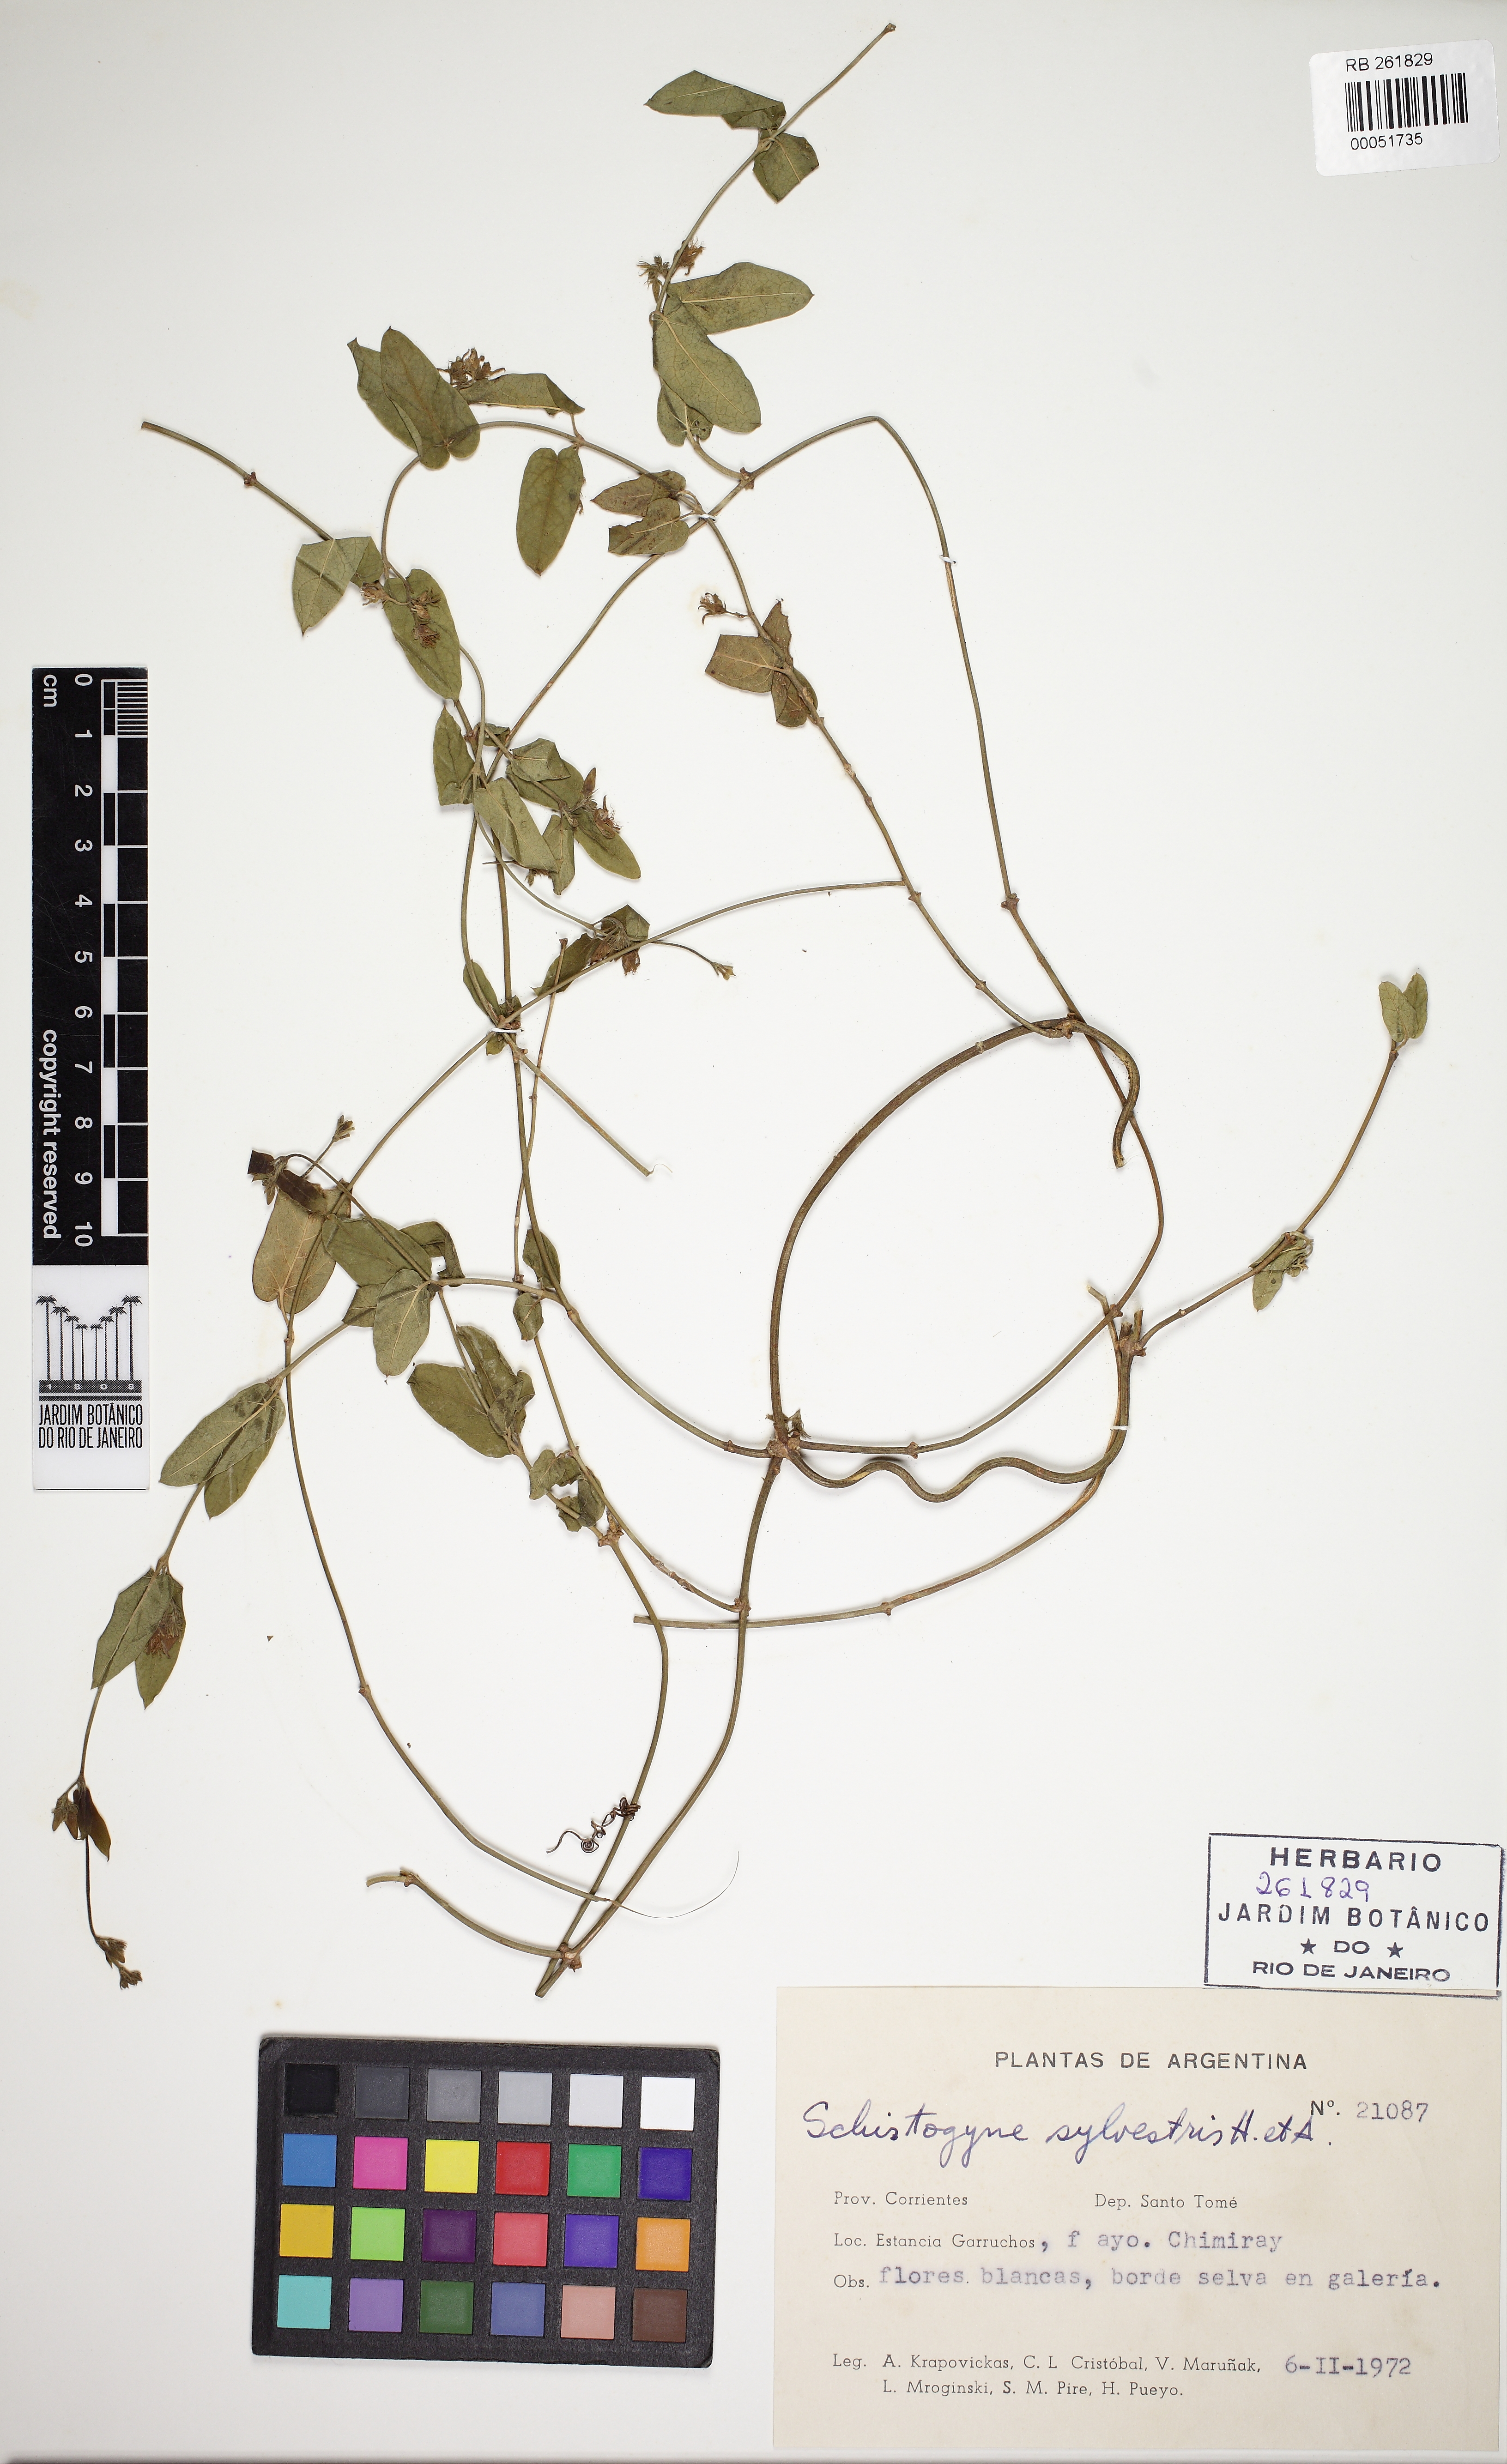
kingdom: Plantae
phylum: Tracheophyta
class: Magnoliopsida
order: Gentianales
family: Apocynaceae
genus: Oxypetalum
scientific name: Oxypetalum sylvestre
